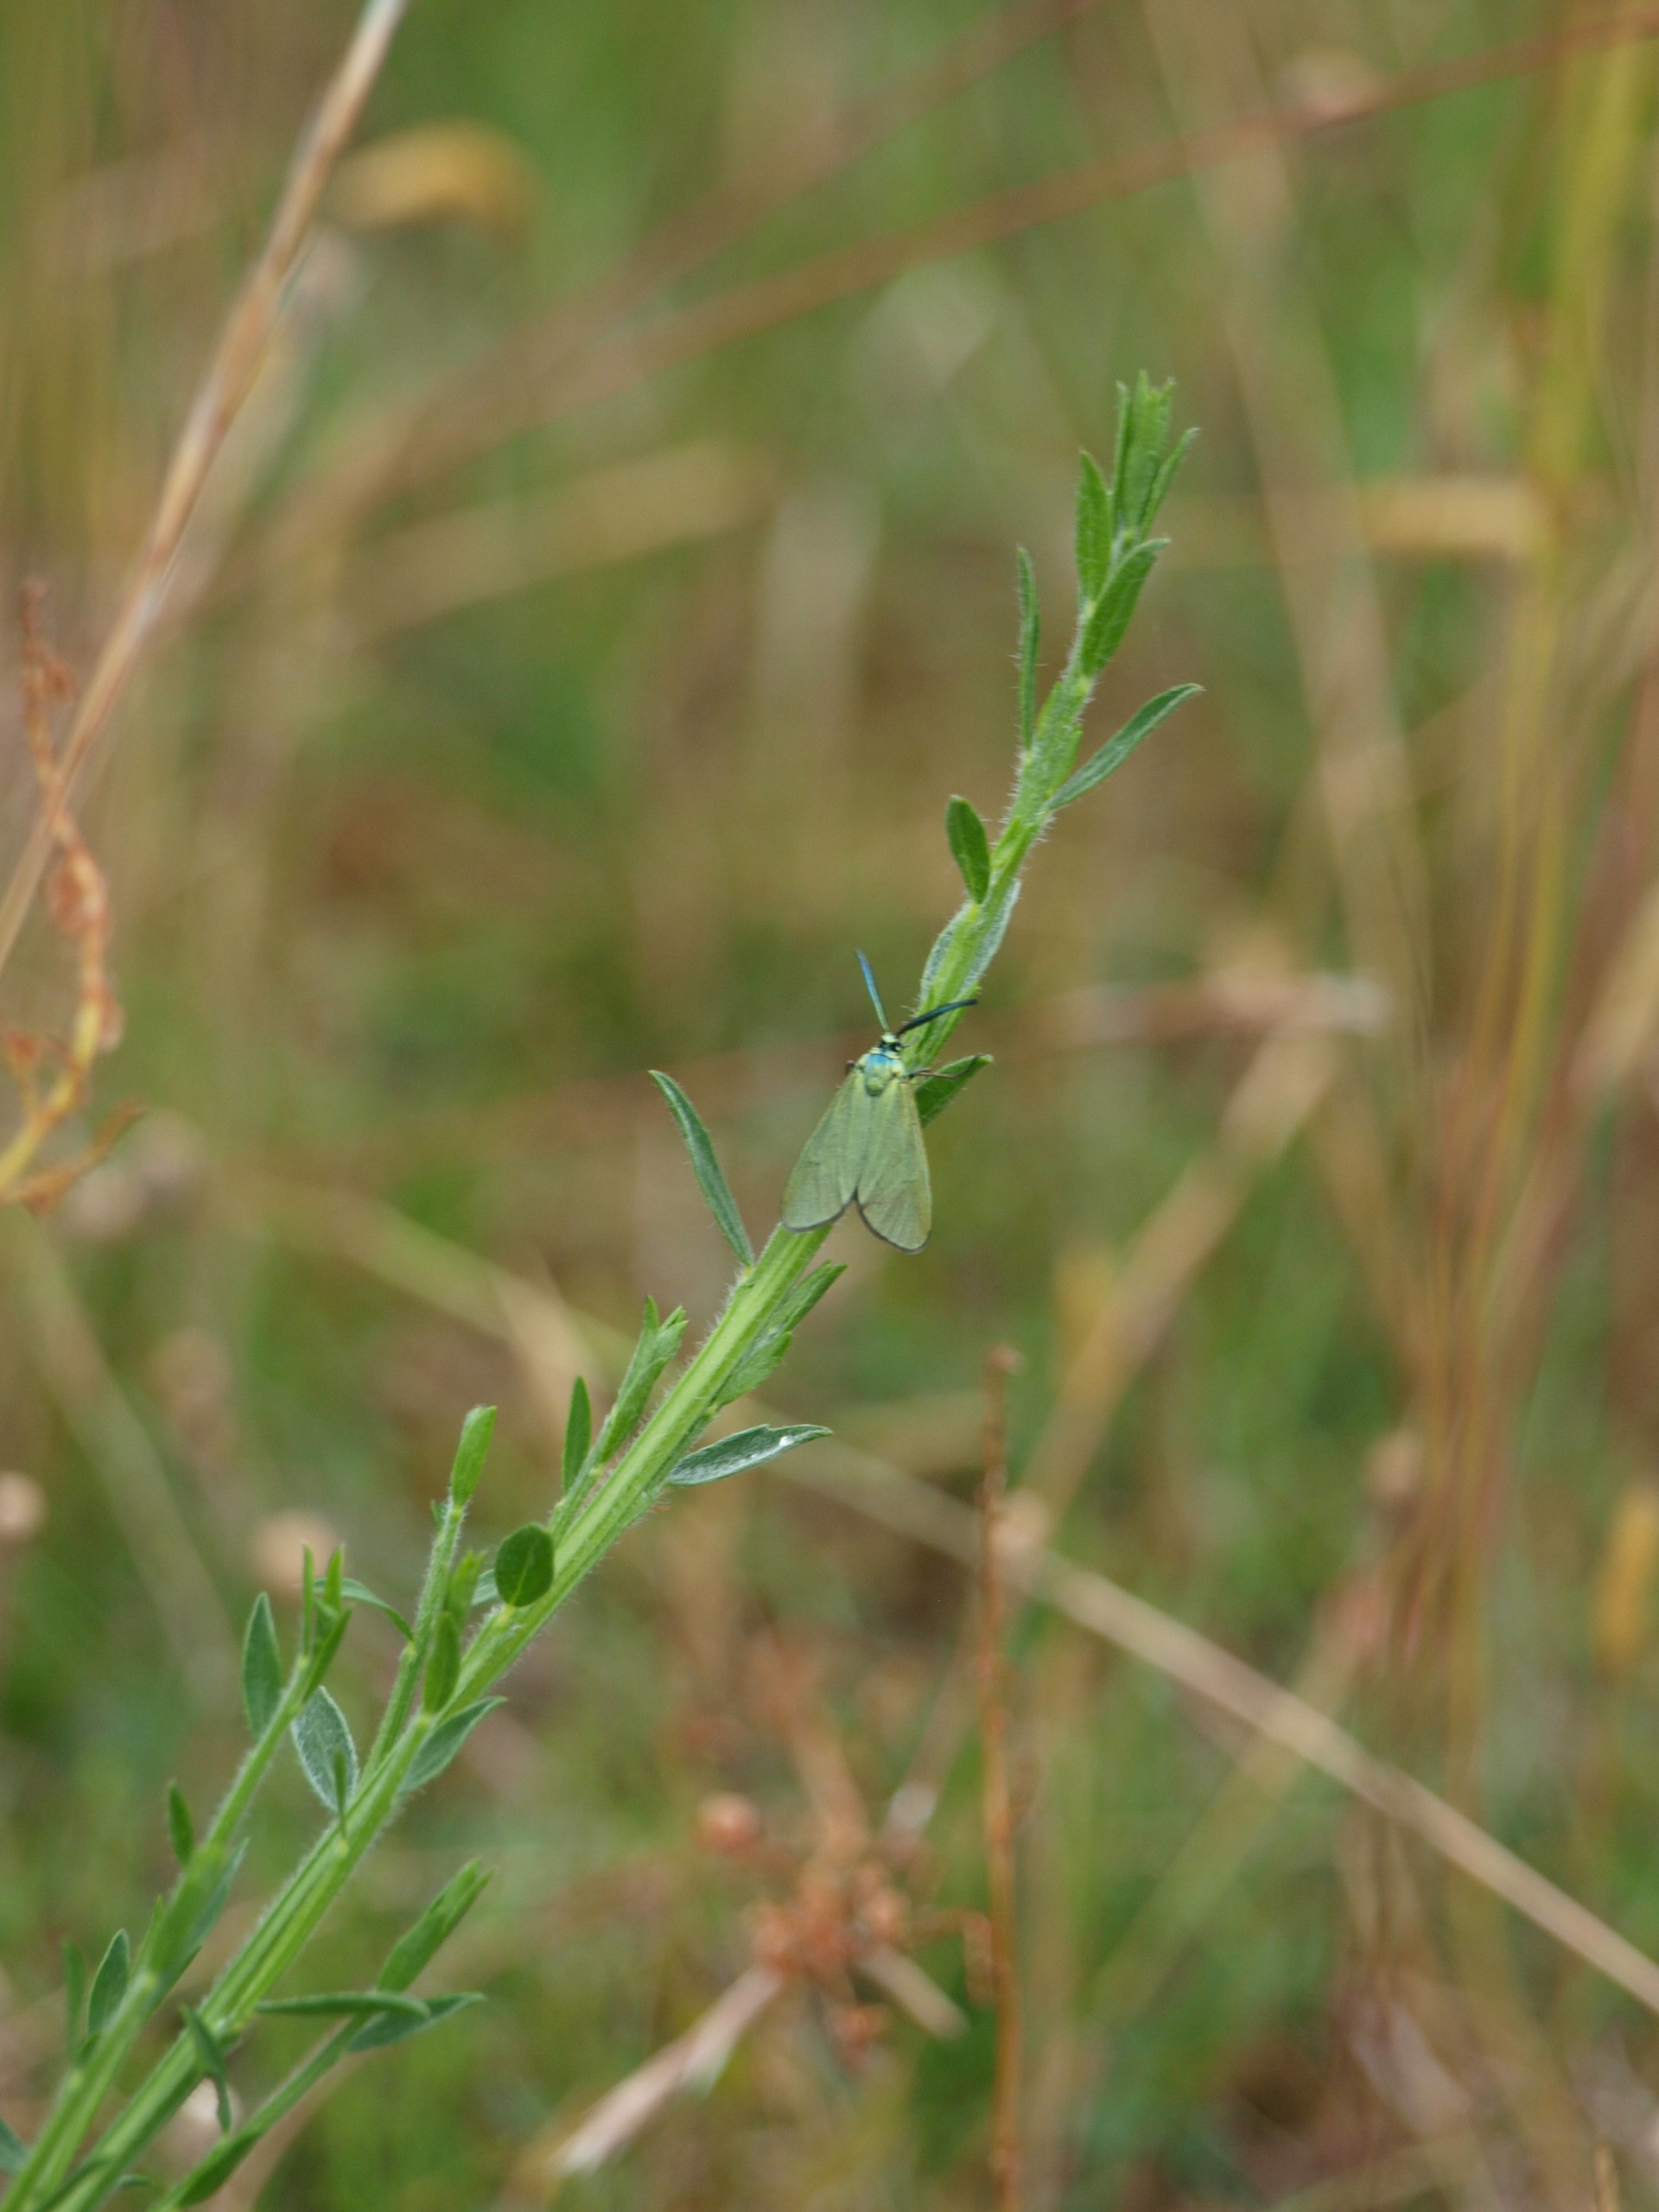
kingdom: Animalia
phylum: Arthropoda
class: Insecta
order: Lepidoptera
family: Zygaenidae
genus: Adscita
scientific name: Adscita statices
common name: Metalvinge
